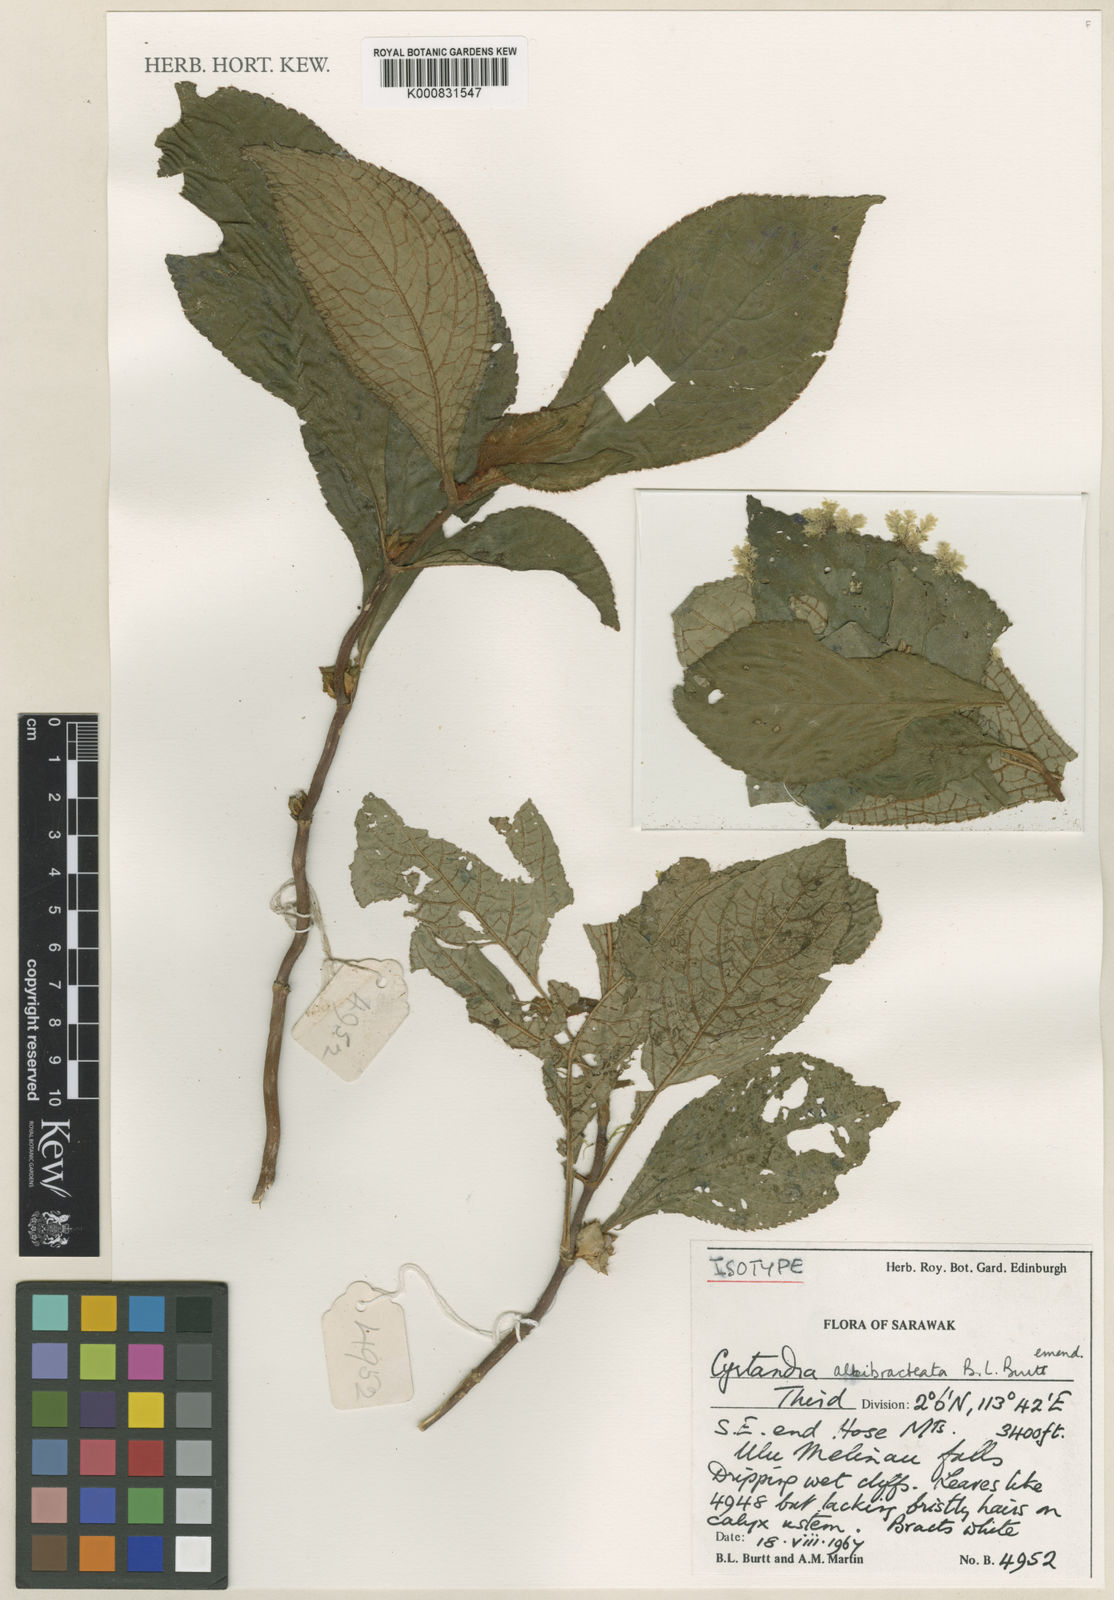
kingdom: Plantae
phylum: Tracheophyta
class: Magnoliopsida
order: Lamiales
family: Gesneriaceae
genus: Cyrtandra
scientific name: Cyrtandra albibracteata
